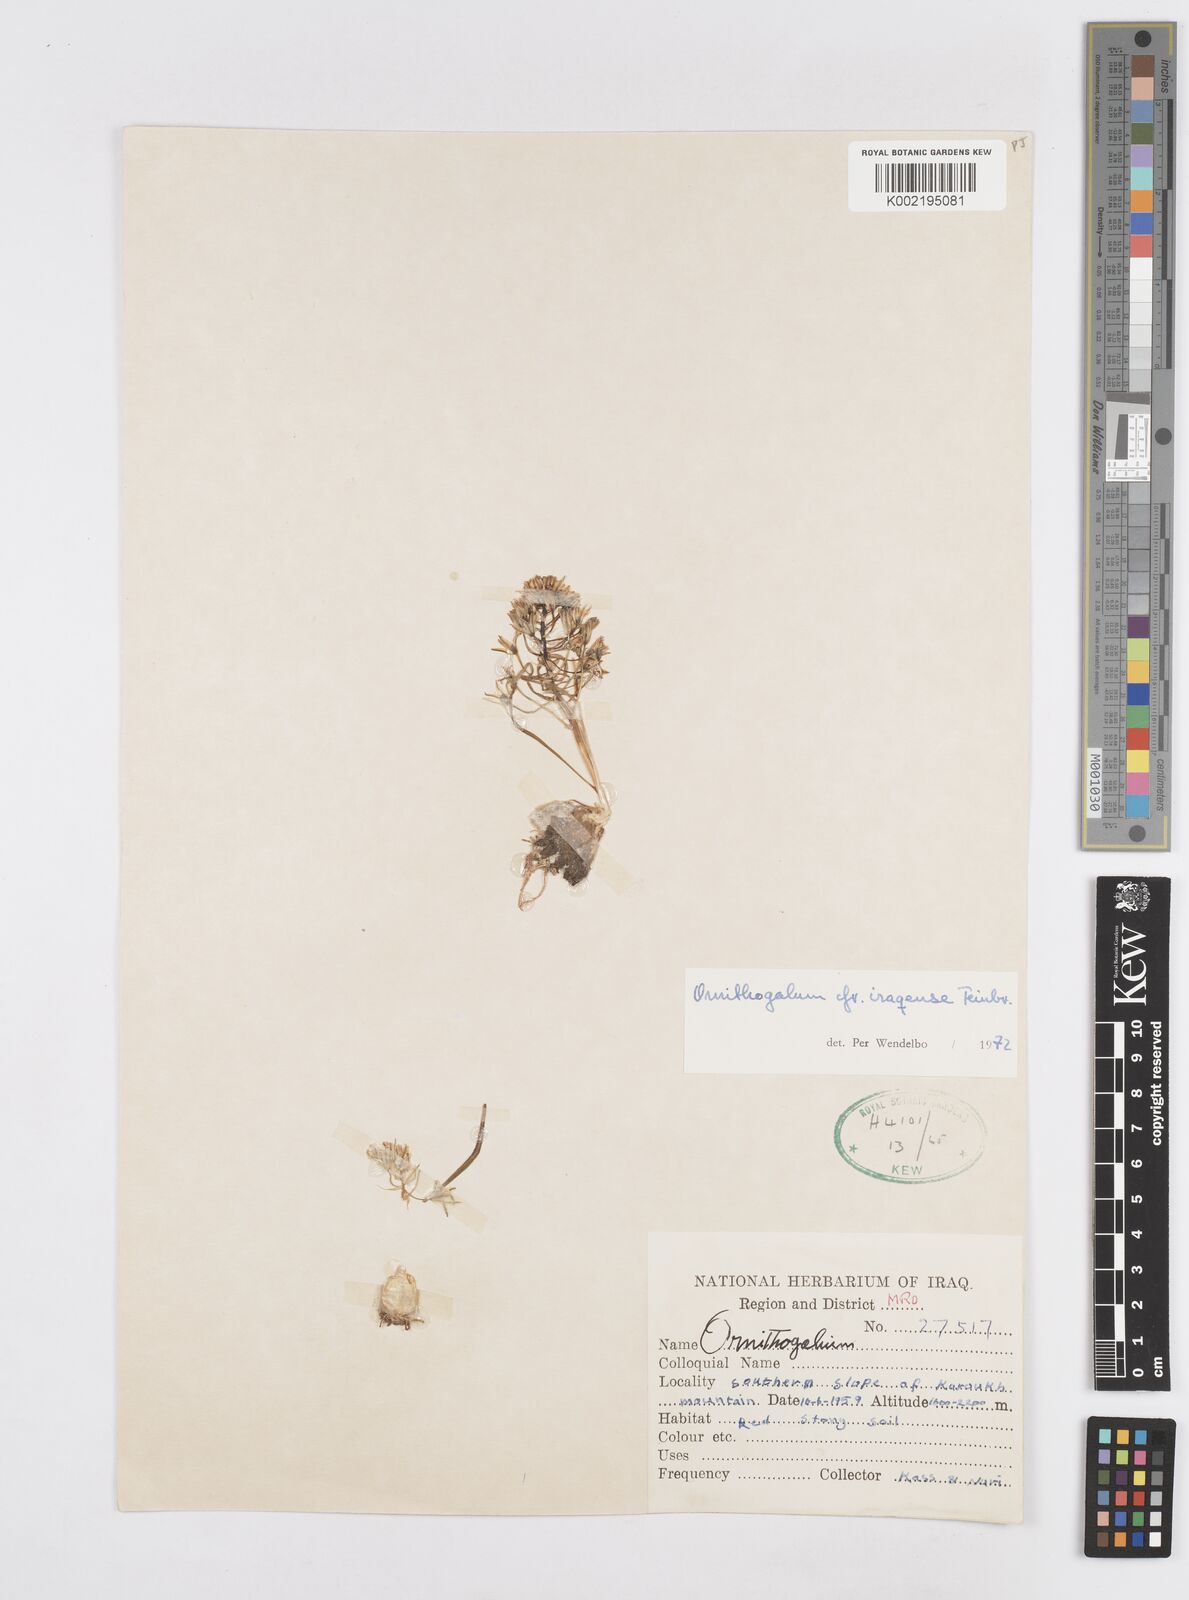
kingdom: Plantae
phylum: Tracheophyta
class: Liliopsida
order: Asparagales
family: Asparagaceae
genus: Ornithogalum
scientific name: Ornithogalum iraqense
